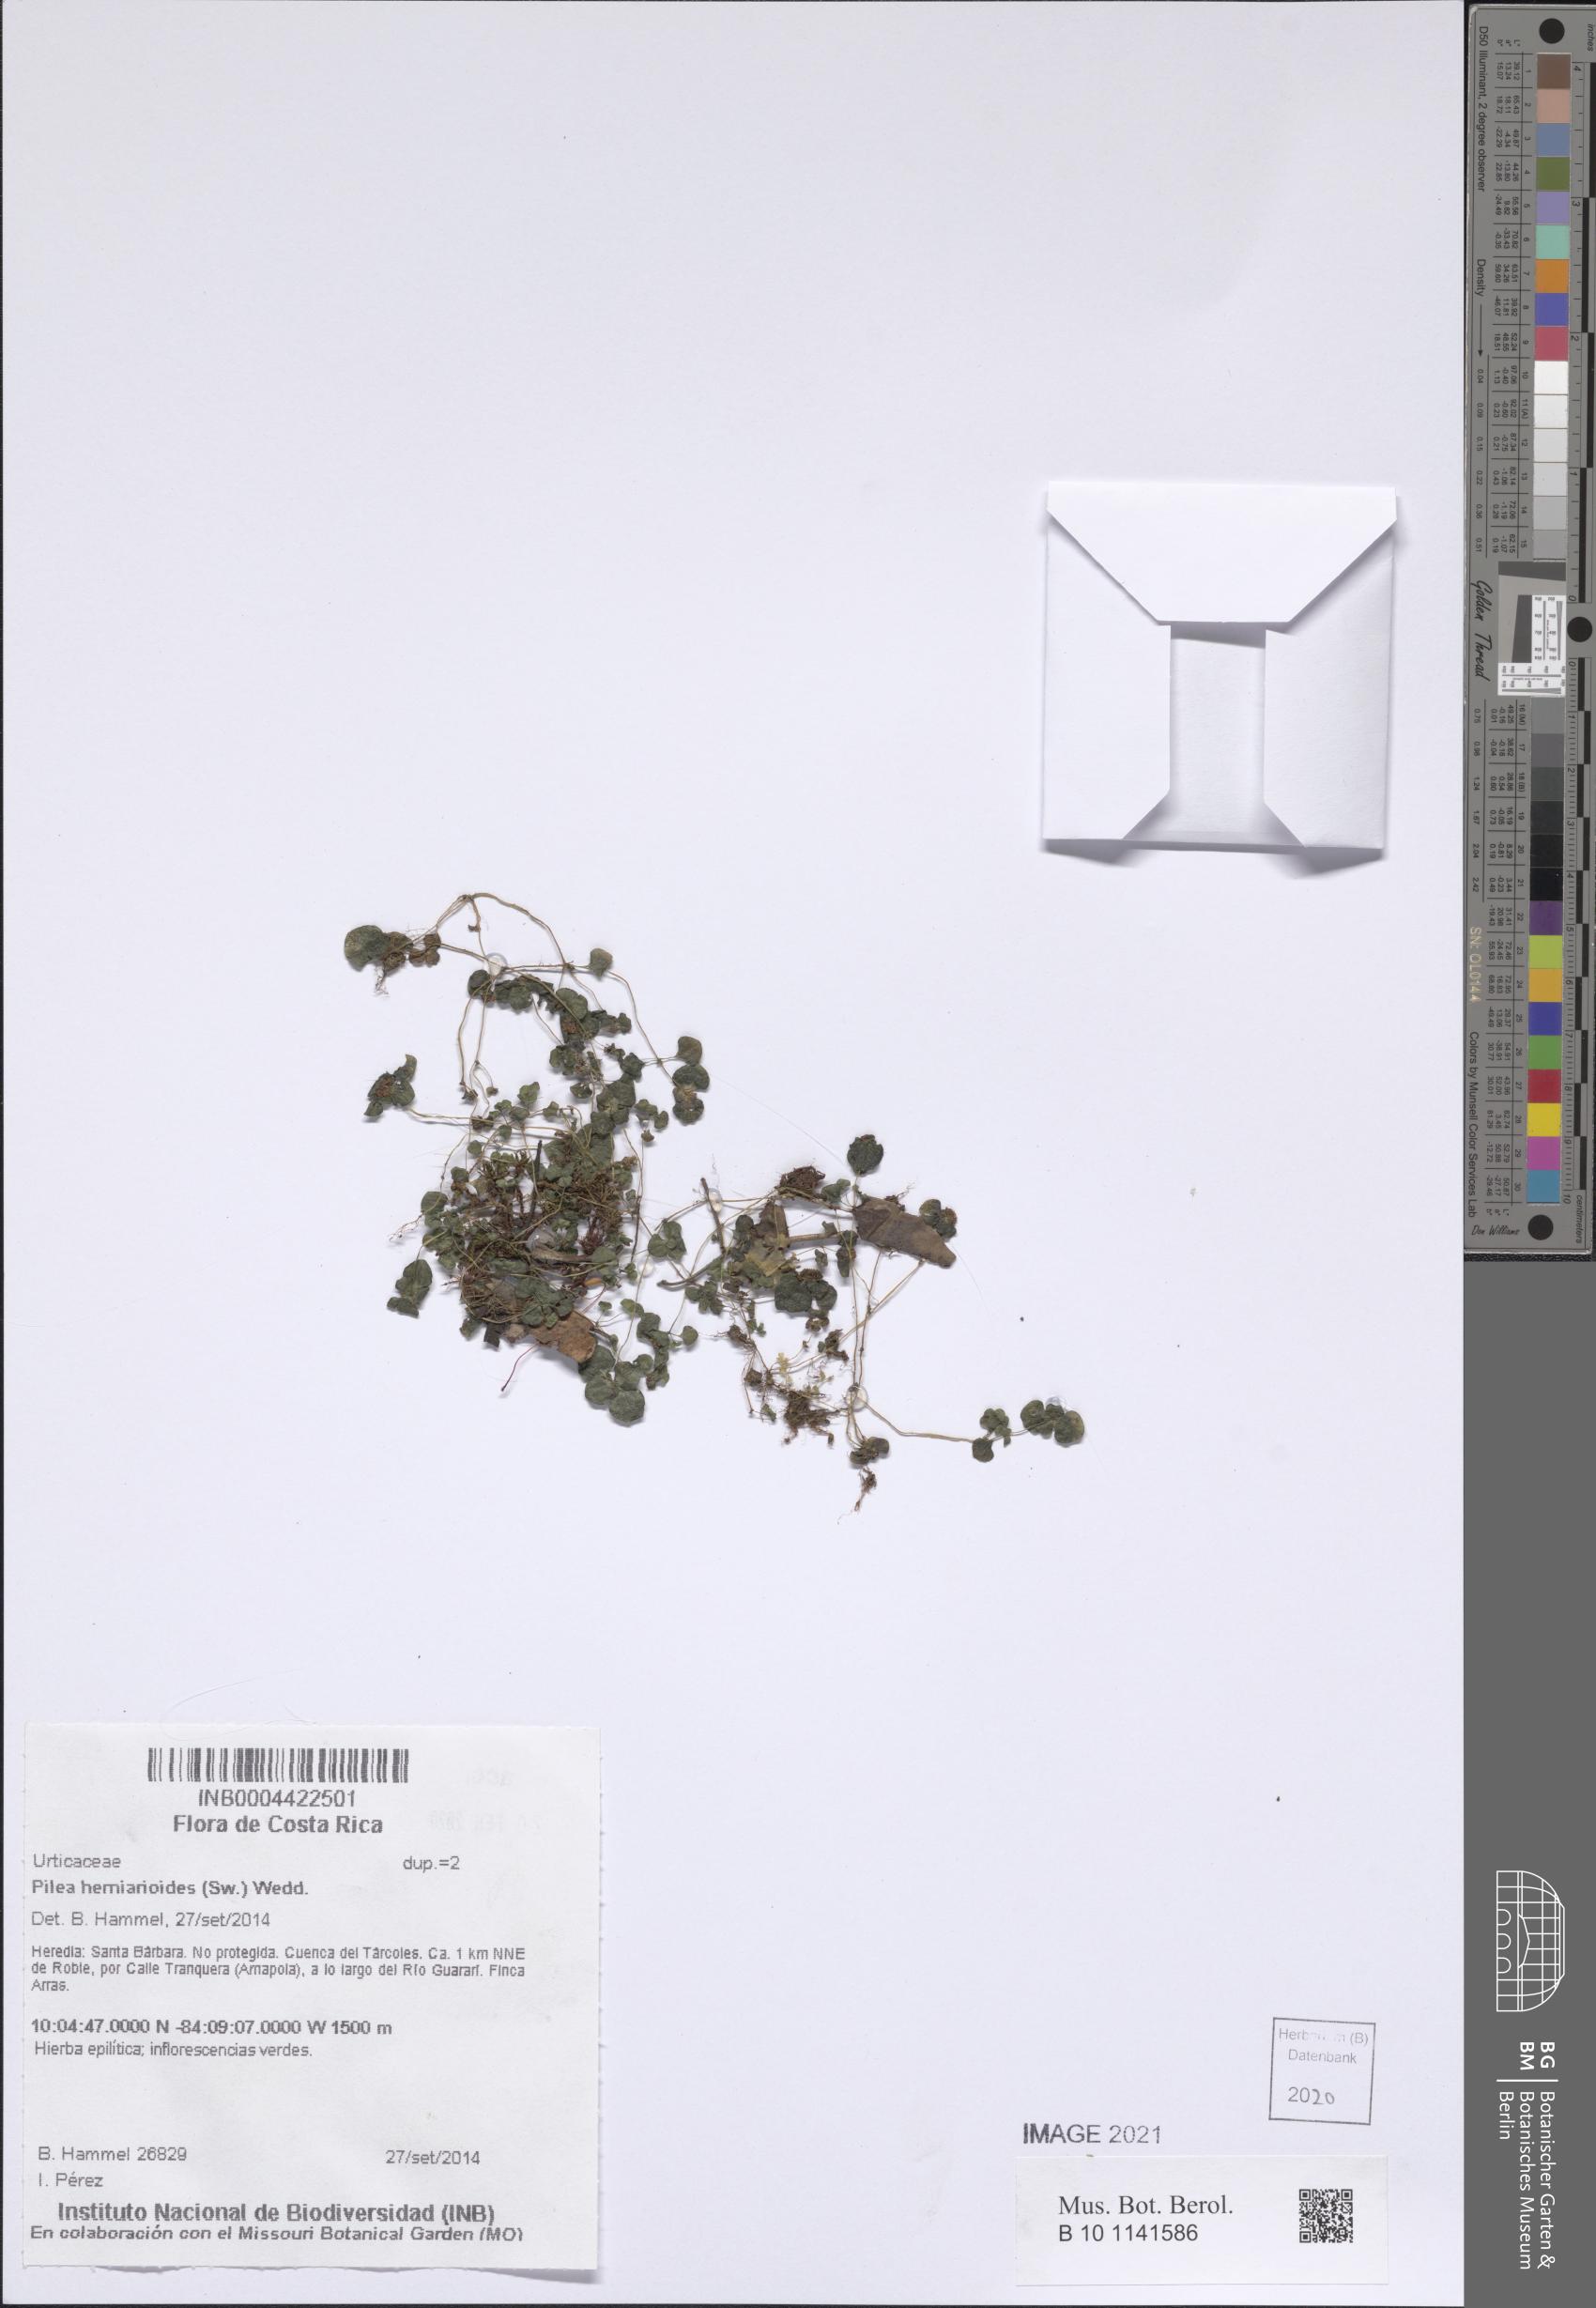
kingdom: Plantae
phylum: Tracheophyta
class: Magnoliopsida
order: Rosales
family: Urticaceae
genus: Pilea
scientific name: Pilea herniarioides
